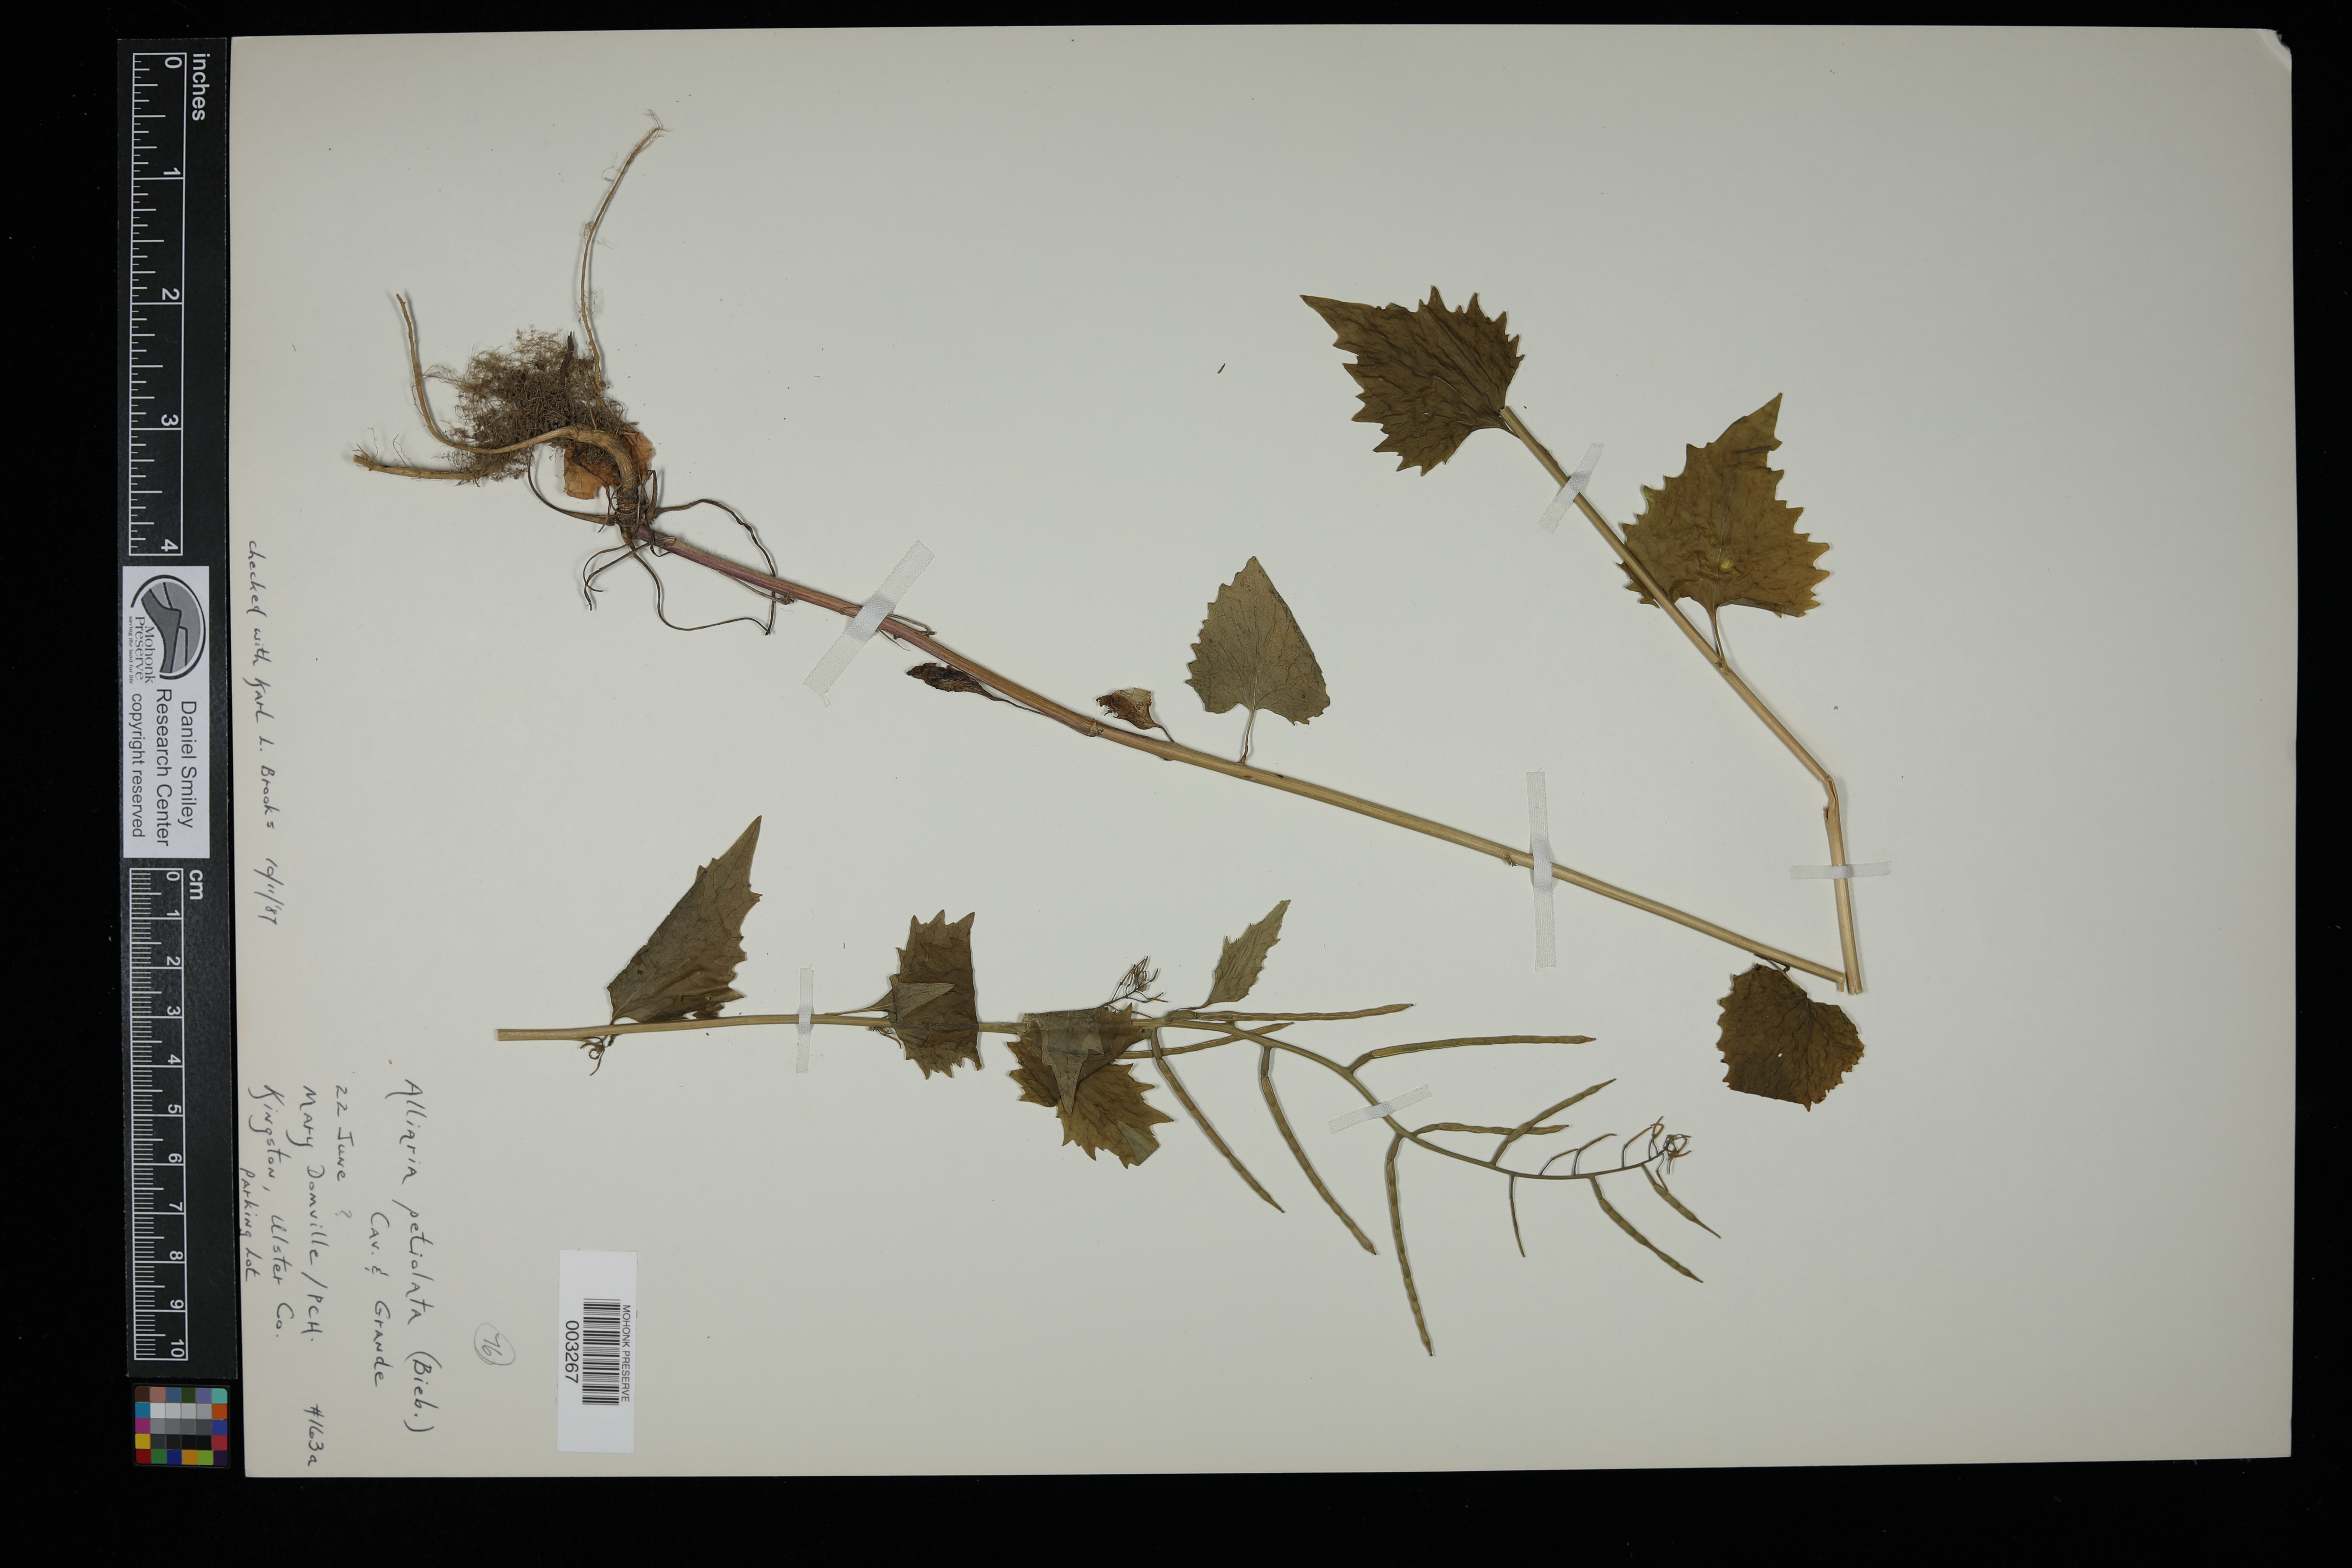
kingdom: Plantae
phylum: Tracheophyta
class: Magnoliopsida
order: Brassicales
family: Brassicaceae
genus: Alliaria
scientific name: Alliaria petiolata
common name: Garlic mustard
